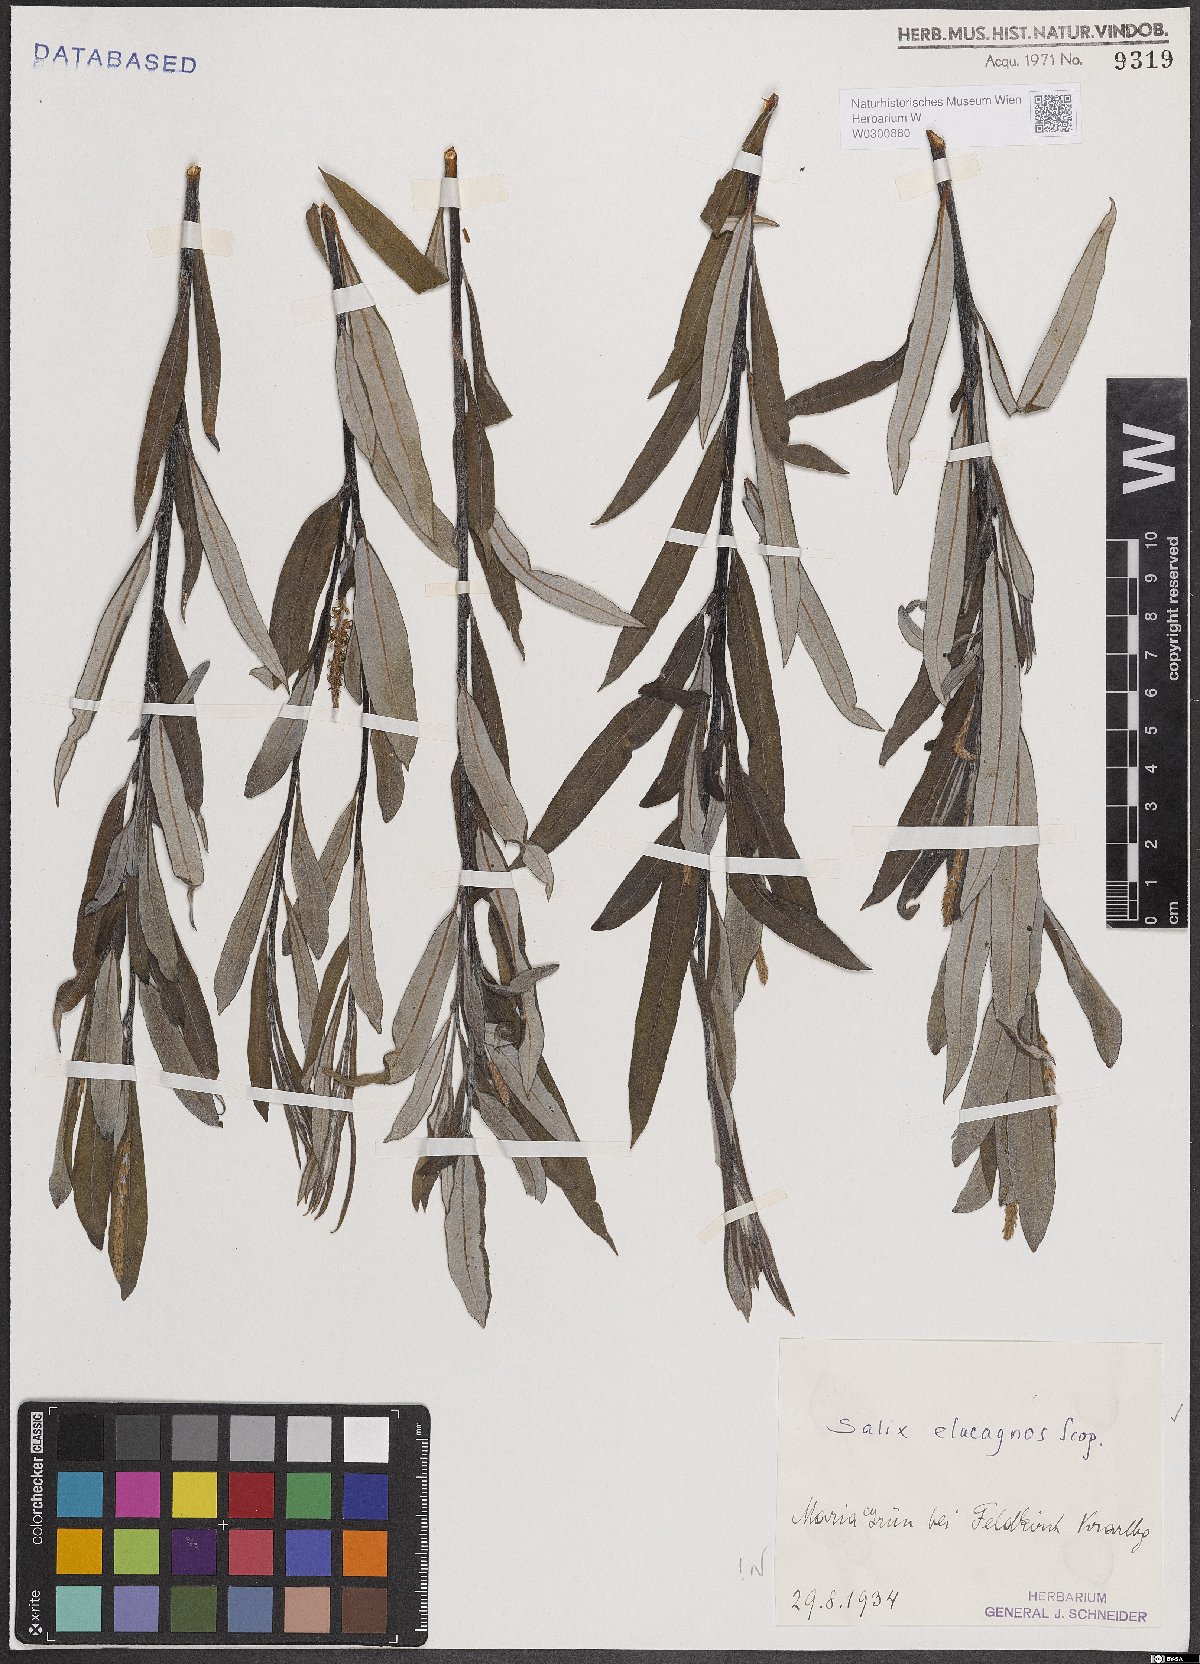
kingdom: Plantae
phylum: Tracheophyta
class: Magnoliopsida
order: Malpighiales
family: Salicaceae
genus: Salix
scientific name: Salix eleagnos
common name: Elaeagnus willow
